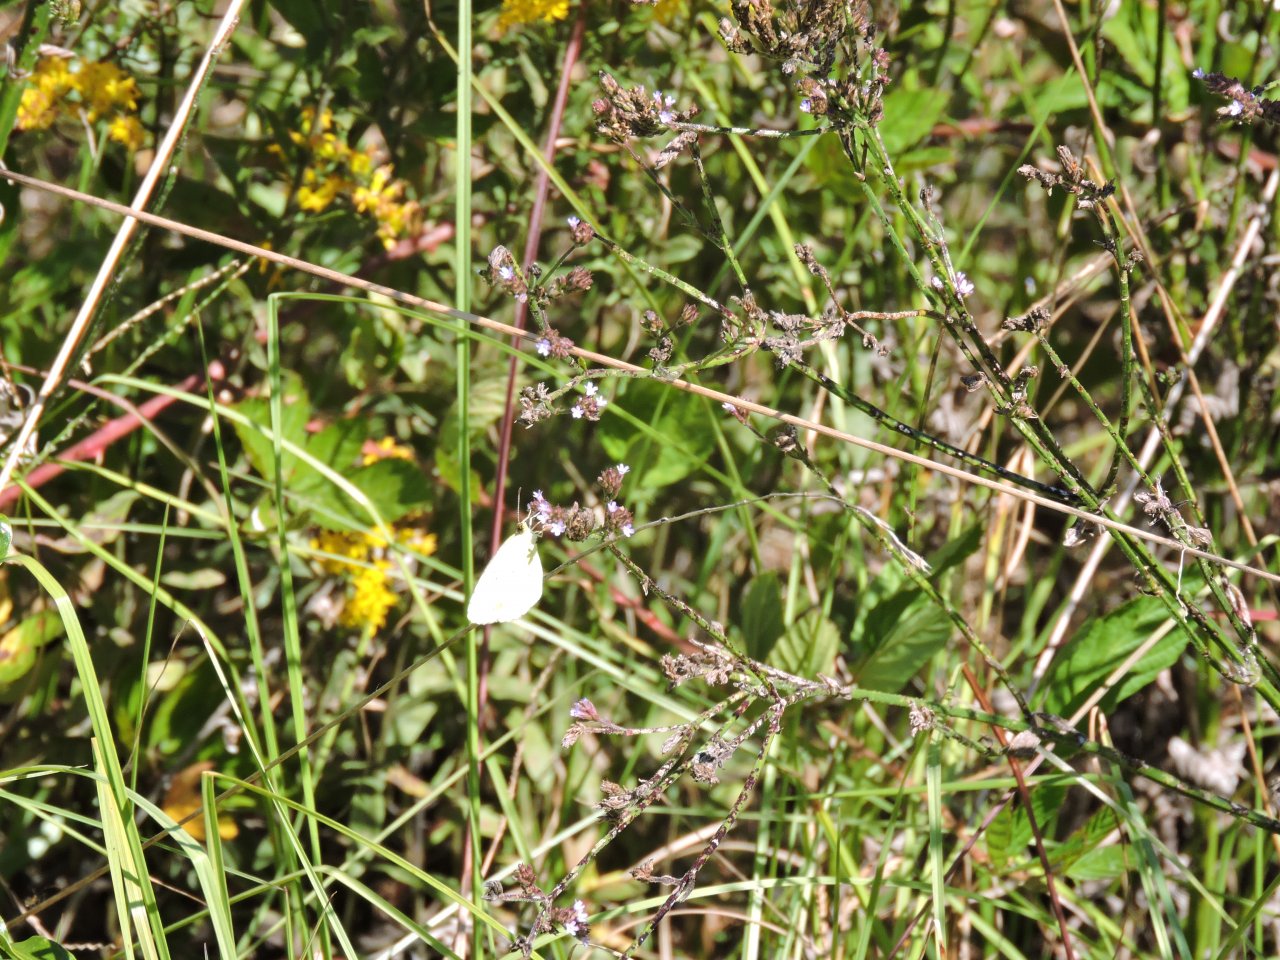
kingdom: Animalia
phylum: Arthropoda
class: Insecta
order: Lepidoptera
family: Pieridae
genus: Pyrisitia
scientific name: Pyrisitia lisa
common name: Little Yellow
